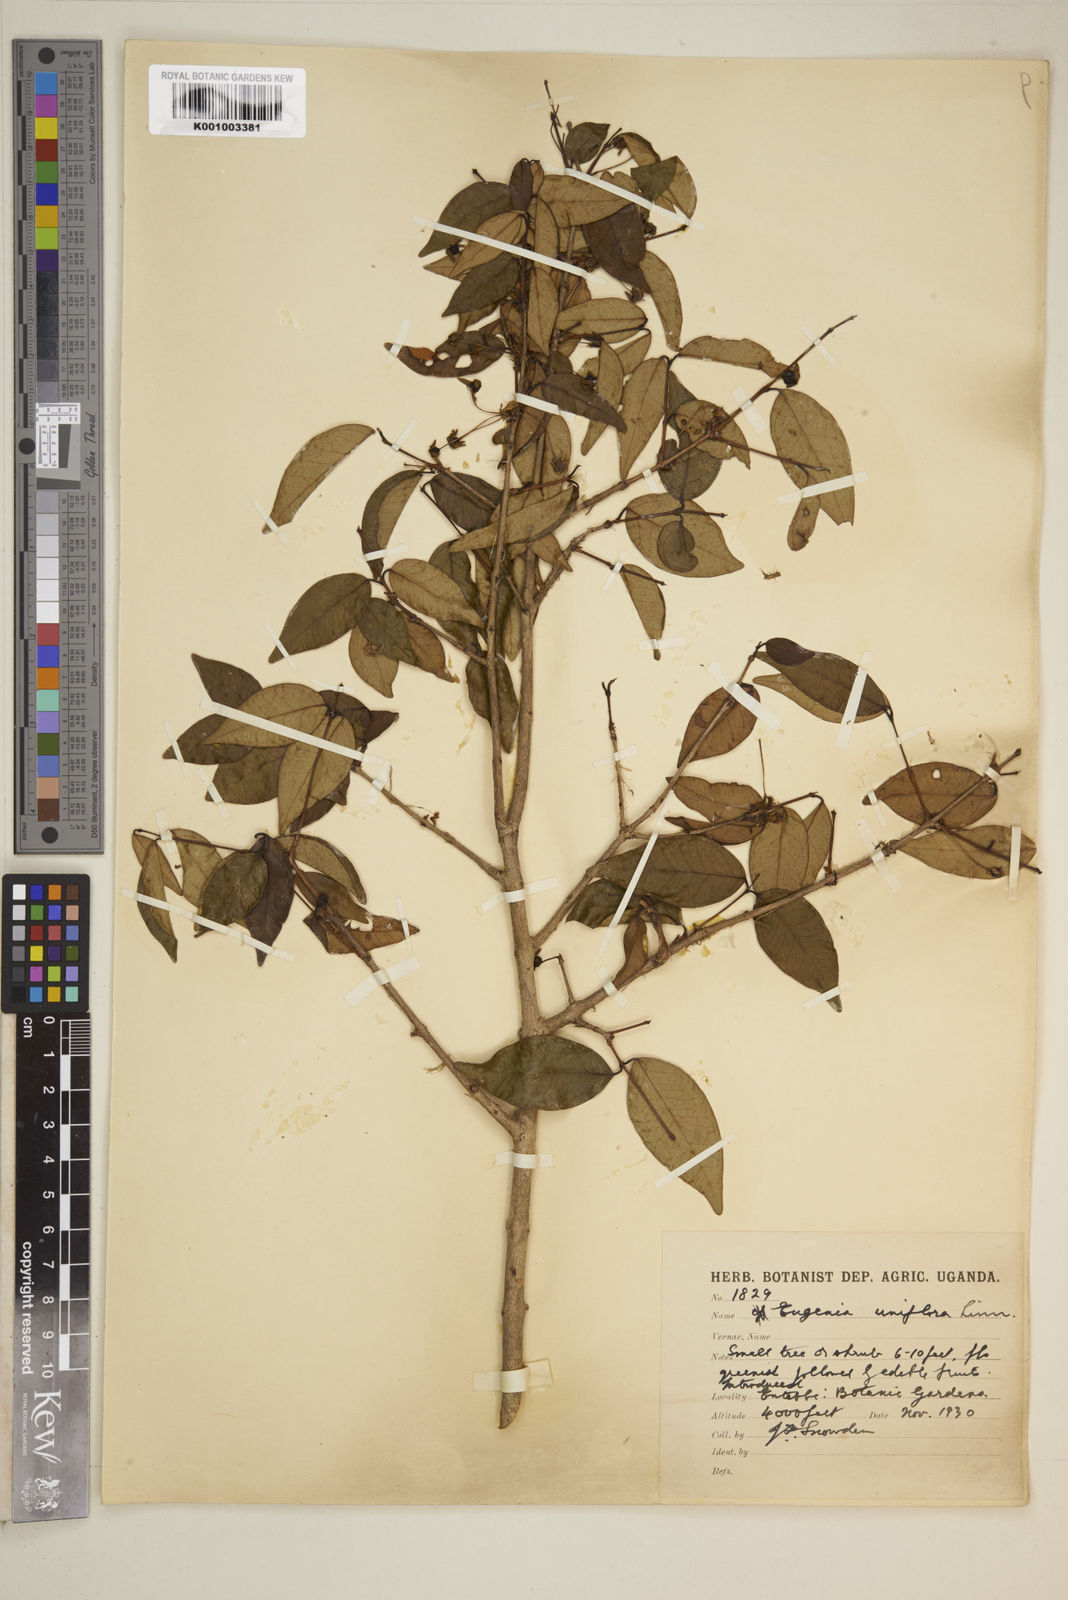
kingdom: Plantae
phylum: Tracheophyta
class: Magnoliopsida
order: Myrtales
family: Myrtaceae
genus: Eugenia
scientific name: Eugenia uniflora
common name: Surinam cherry
